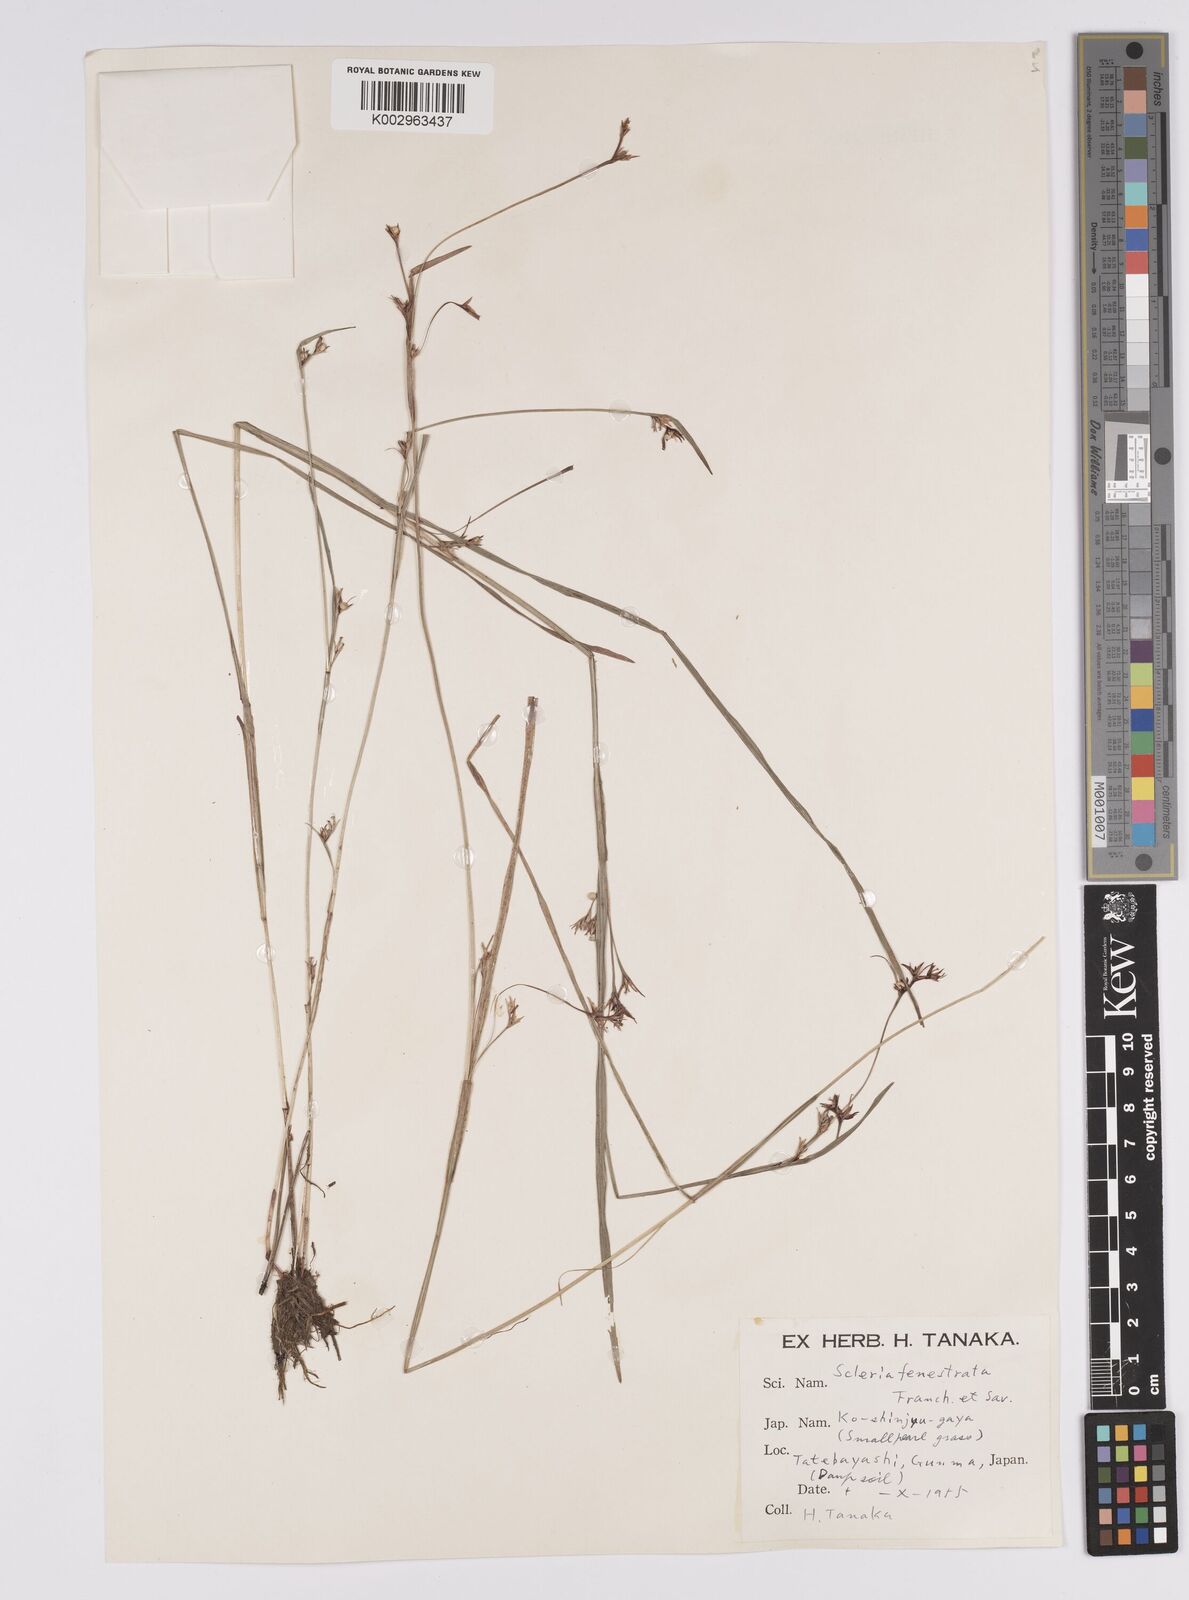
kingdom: Plantae
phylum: Tracheophyta
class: Liliopsida
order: Poales
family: Cyperaceae
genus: Scleria
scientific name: Scleria parvula
